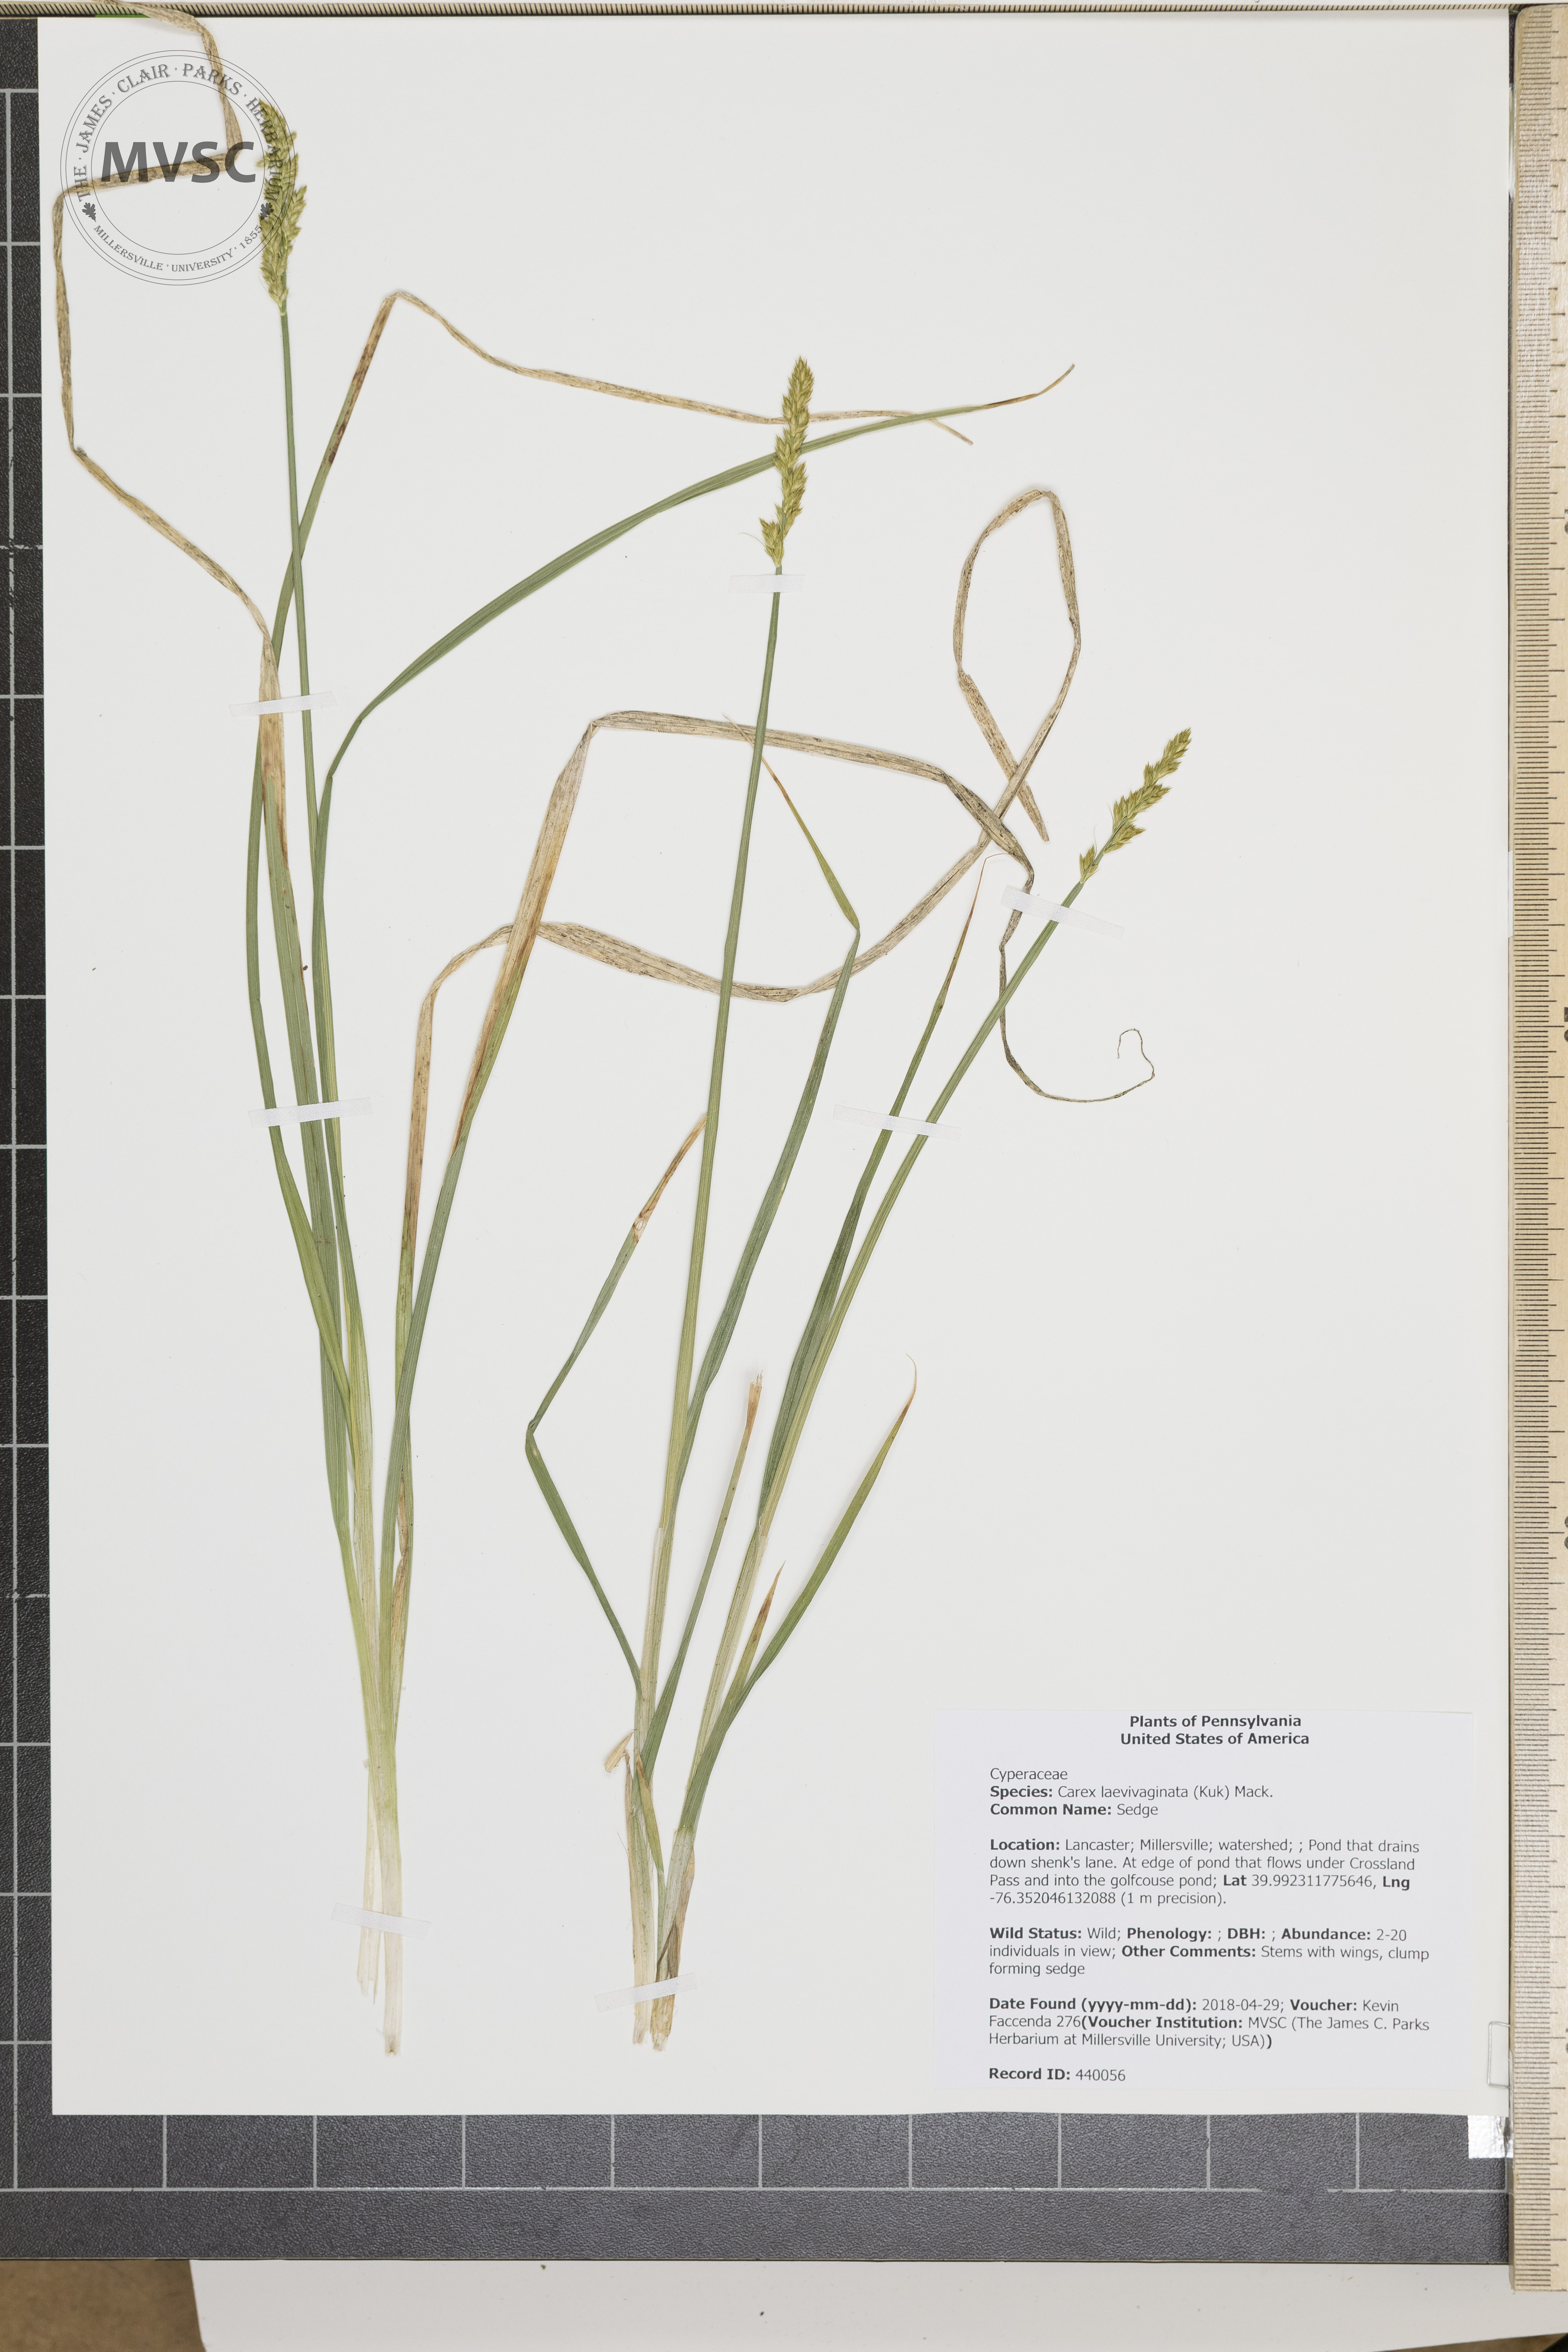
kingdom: Plantae
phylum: Tracheophyta
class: Liliopsida
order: Poales
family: Cyperaceae
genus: Carex
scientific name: Carex laevivaginata
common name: Sedge
